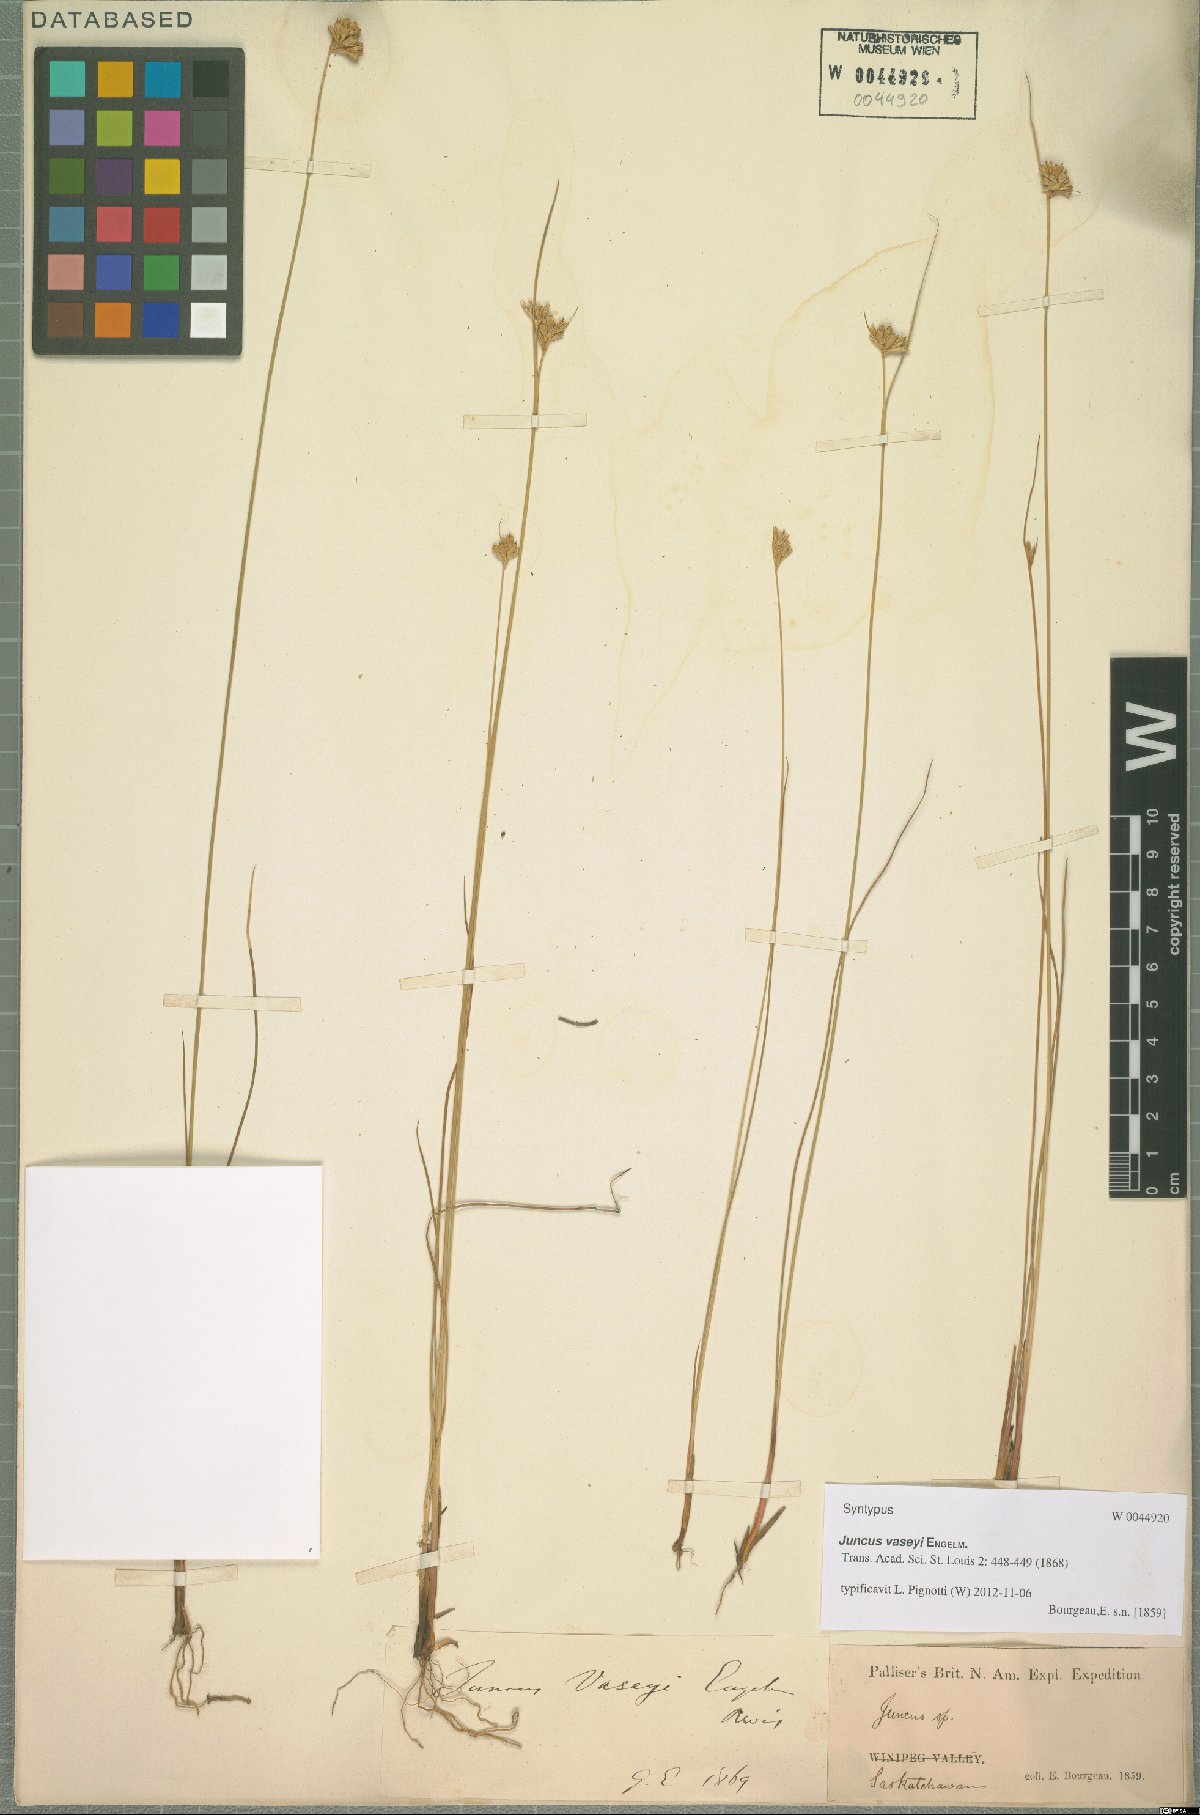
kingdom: Plantae
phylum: Tracheophyta
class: Liliopsida
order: Poales
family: Juncaceae
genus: Juncus
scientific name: Juncus vaseyi
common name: Big-headed rush
